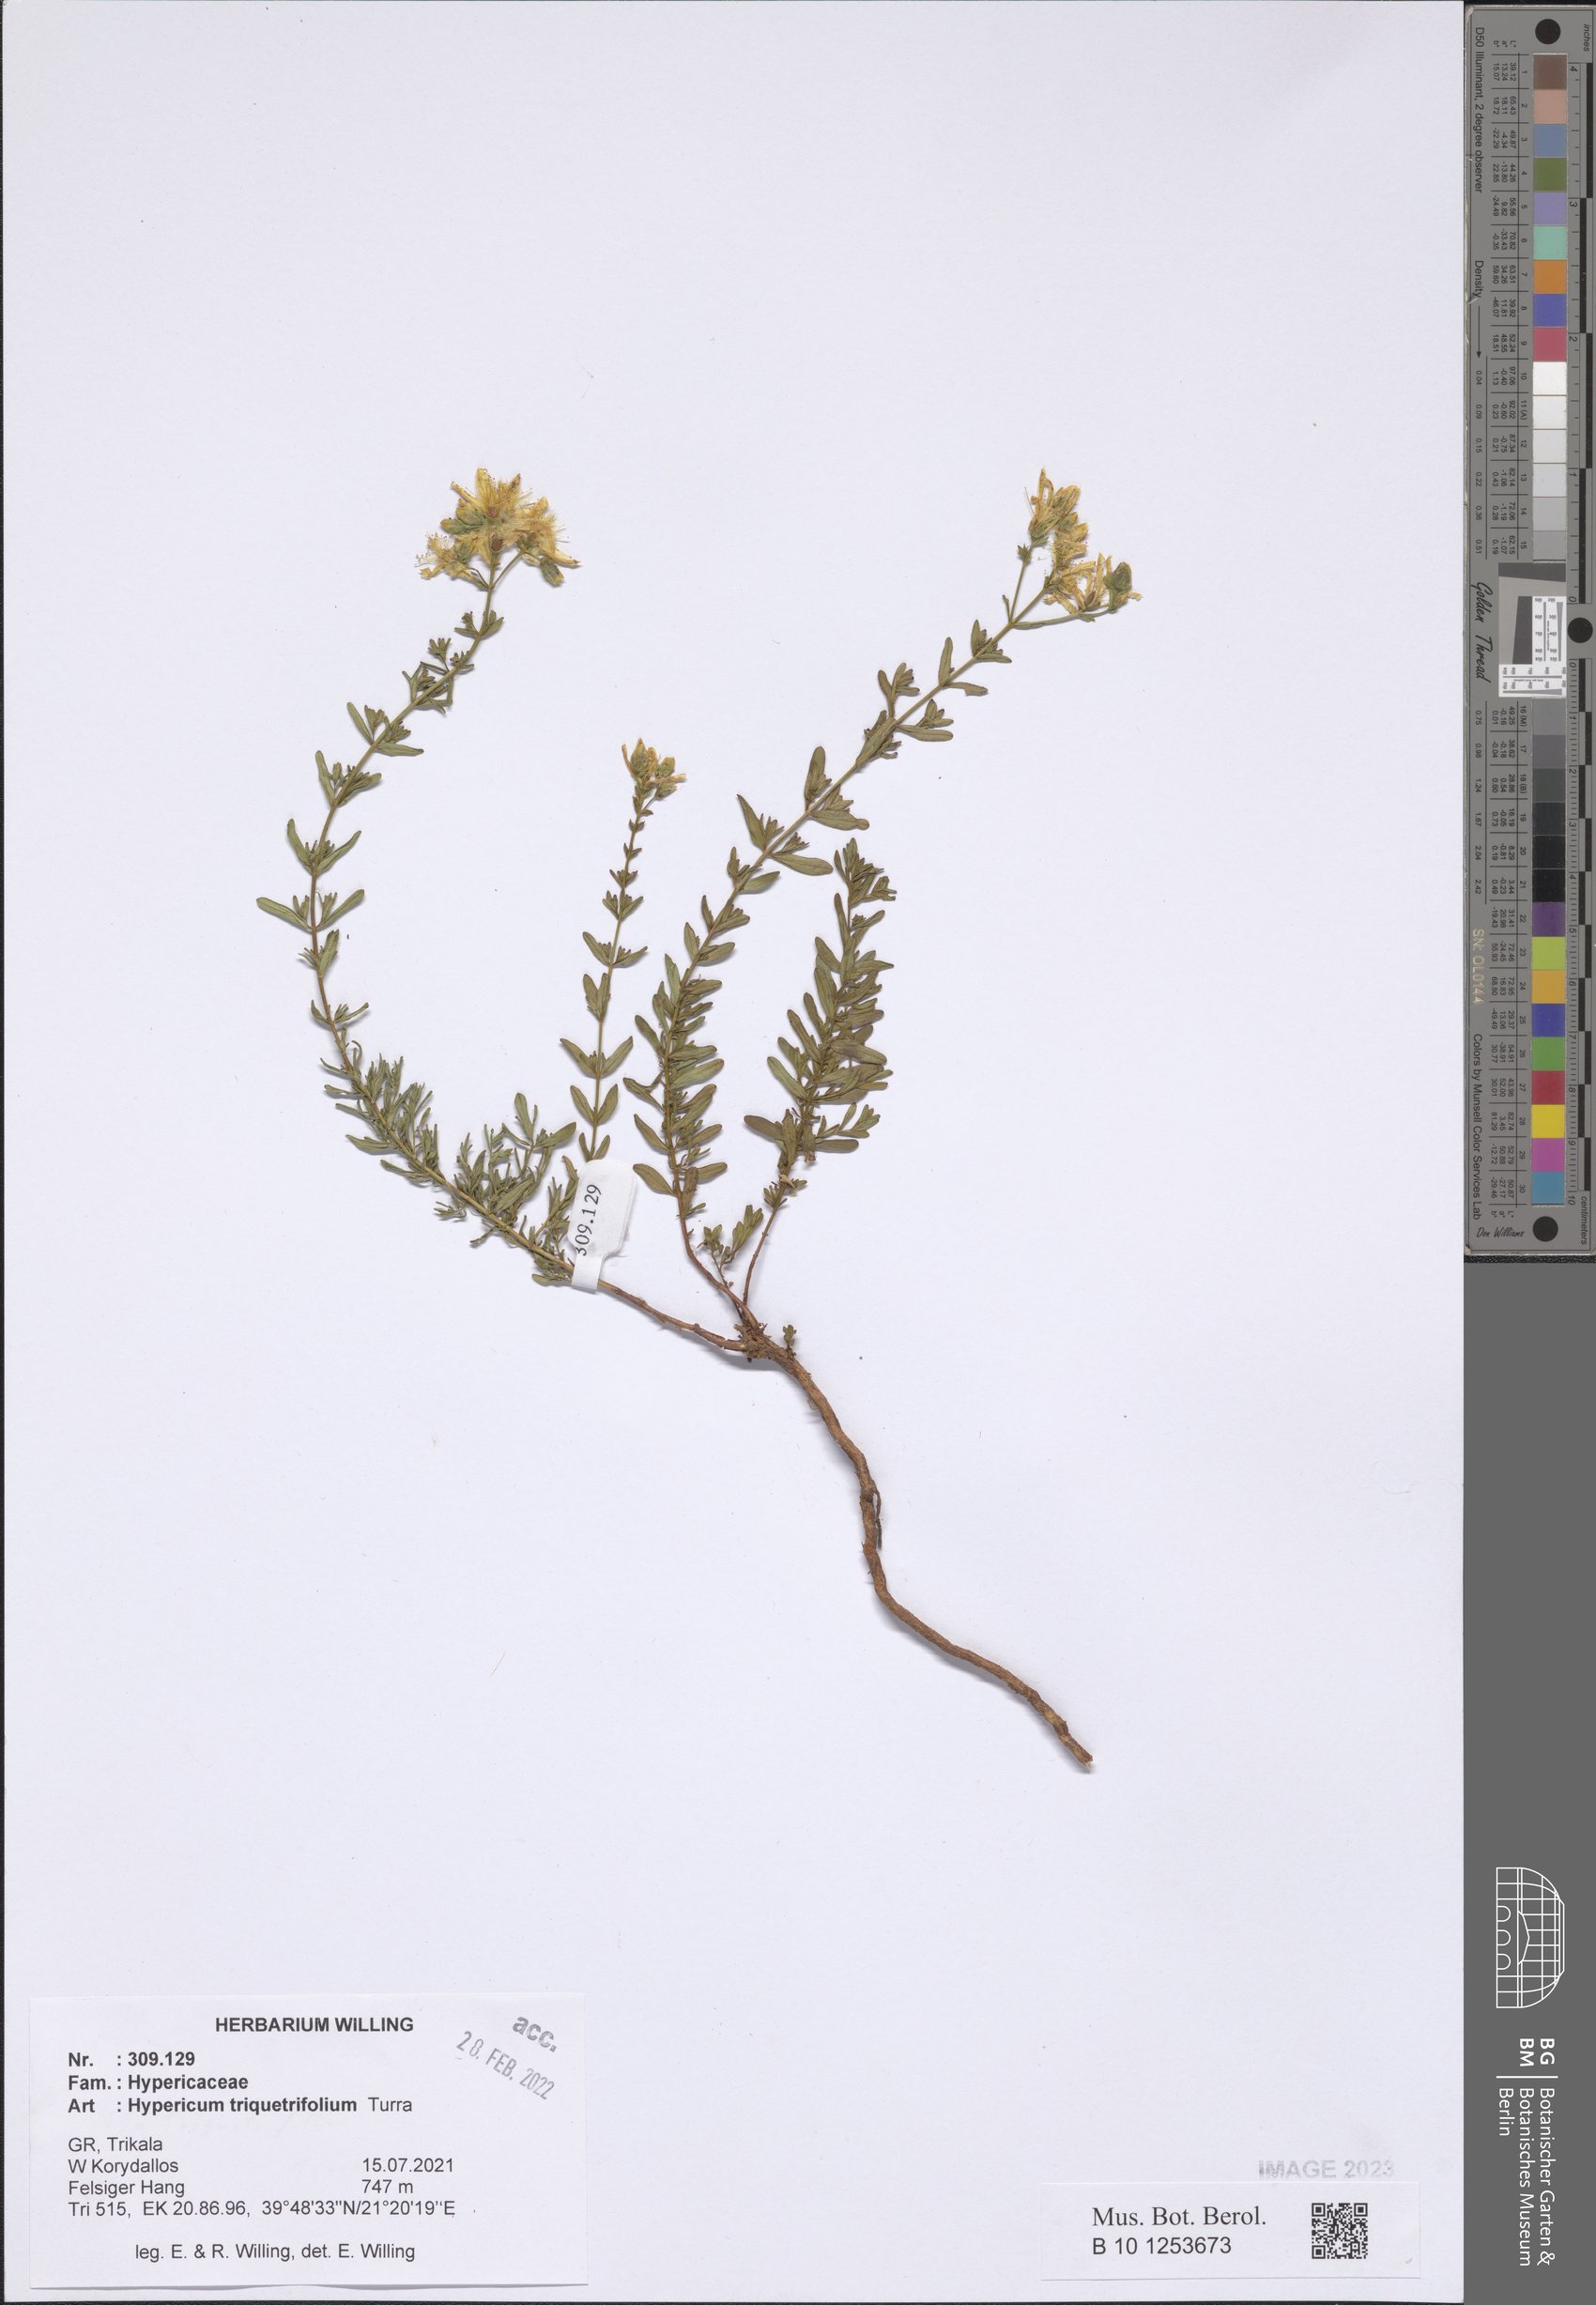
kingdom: Plantae
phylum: Tracheophyta
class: Magnoliopsida
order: Malpighiales
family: Hypericaceae
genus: Hypericum
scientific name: Hypericum triquetrifolium
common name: Tangled hypericum
